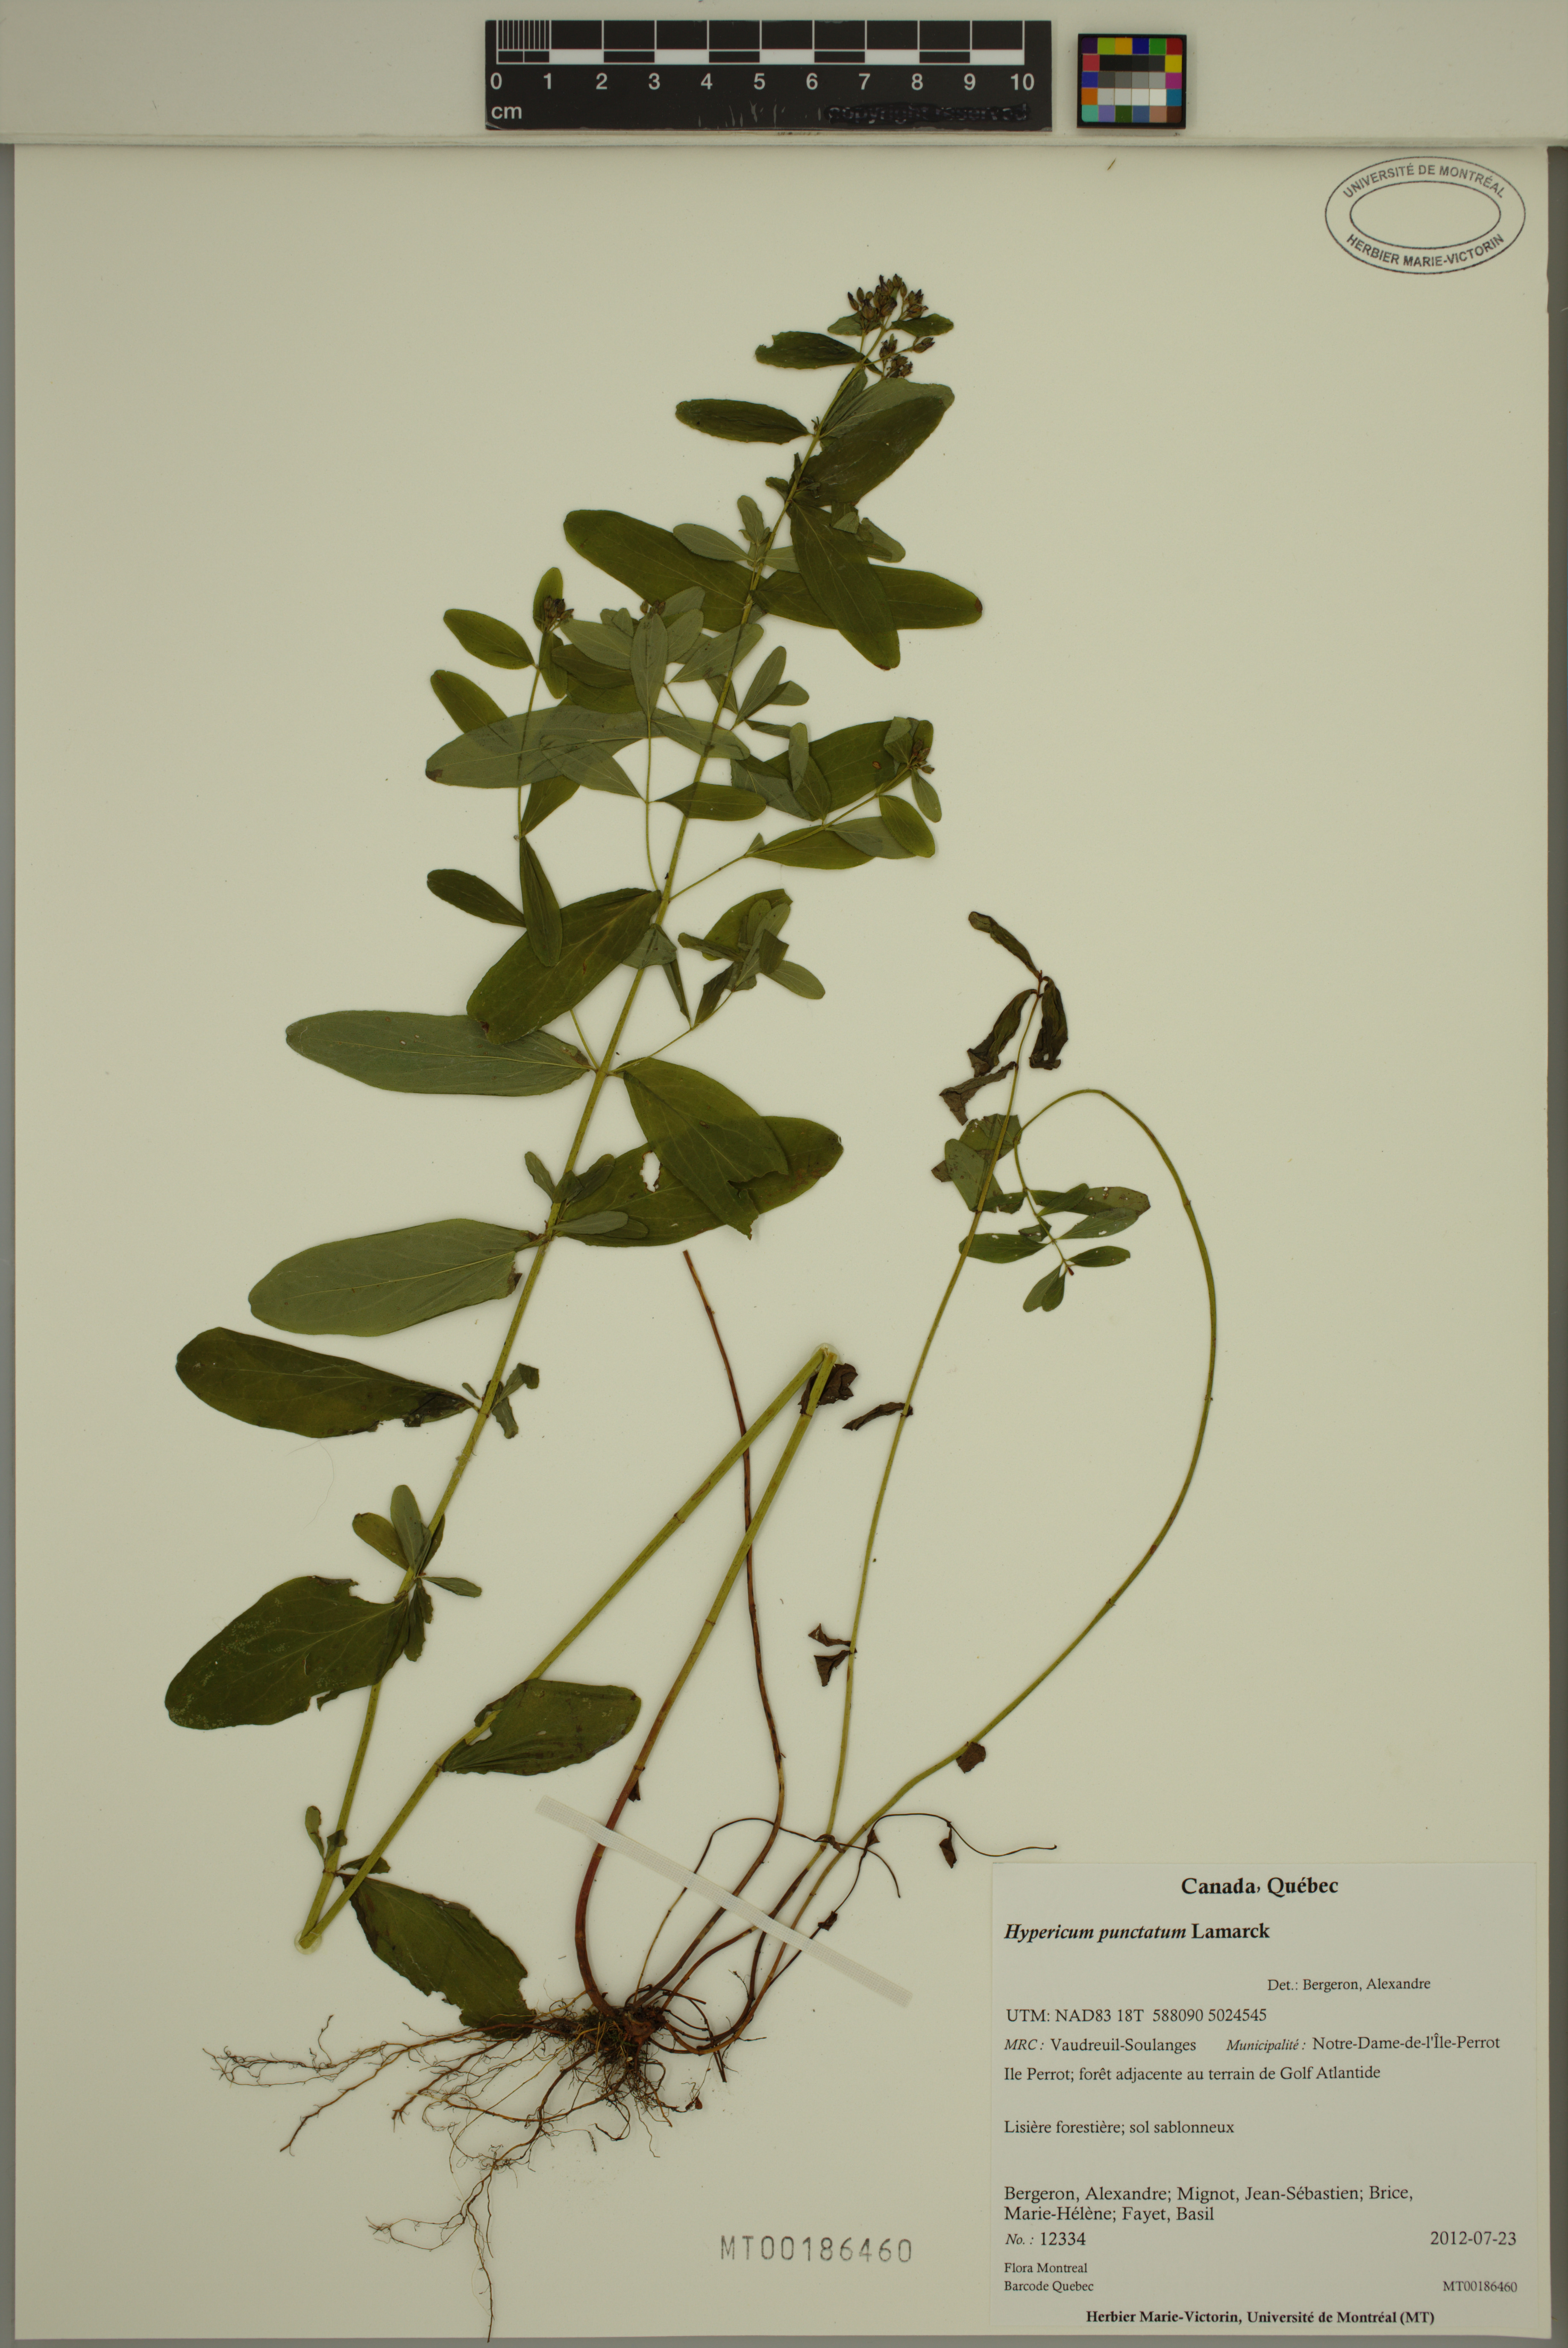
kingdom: Plantae
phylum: Tracheophyta
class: Magnoliopsida
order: Malpighiales
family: Hypericaceae
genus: Hypericum
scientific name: Hypericum punctatum
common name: Spotted st. john's-wort
